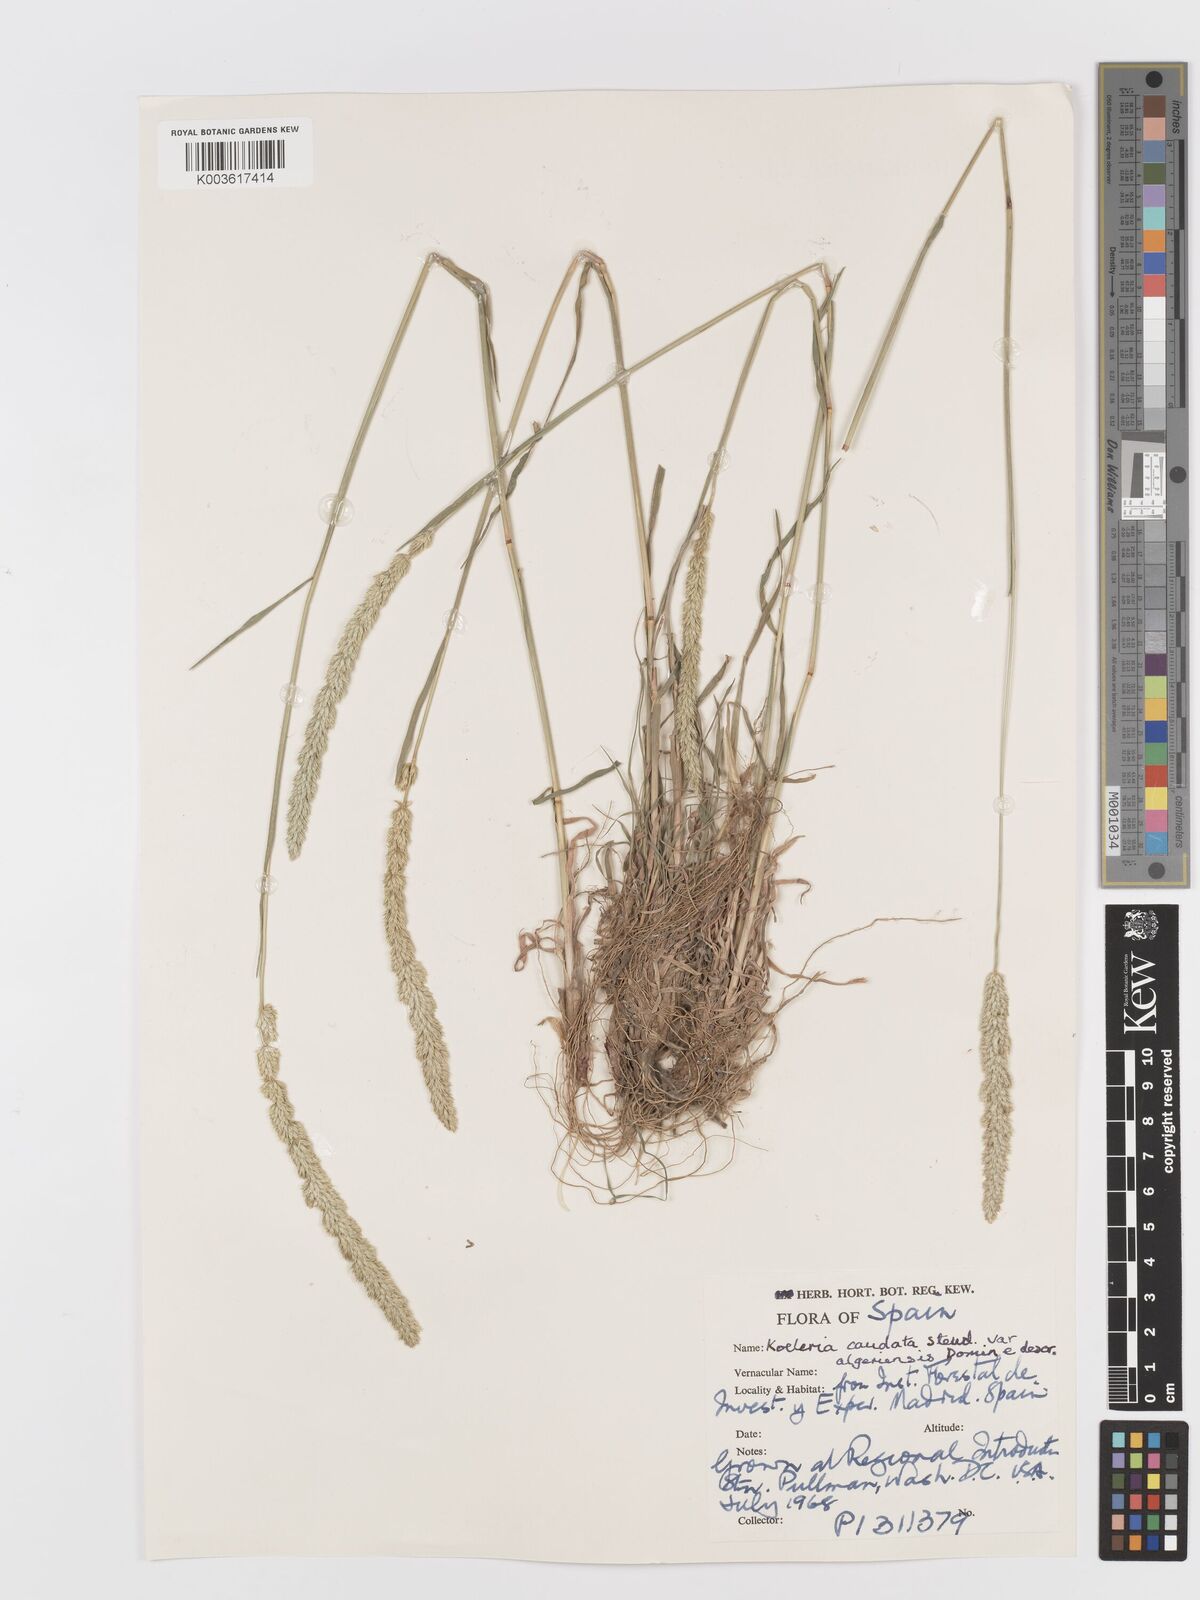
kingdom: Plantae
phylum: Tracheophyta
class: Liliopsida
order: Poales
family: Poaceae
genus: Koeleria
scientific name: Koeleria crassipes
